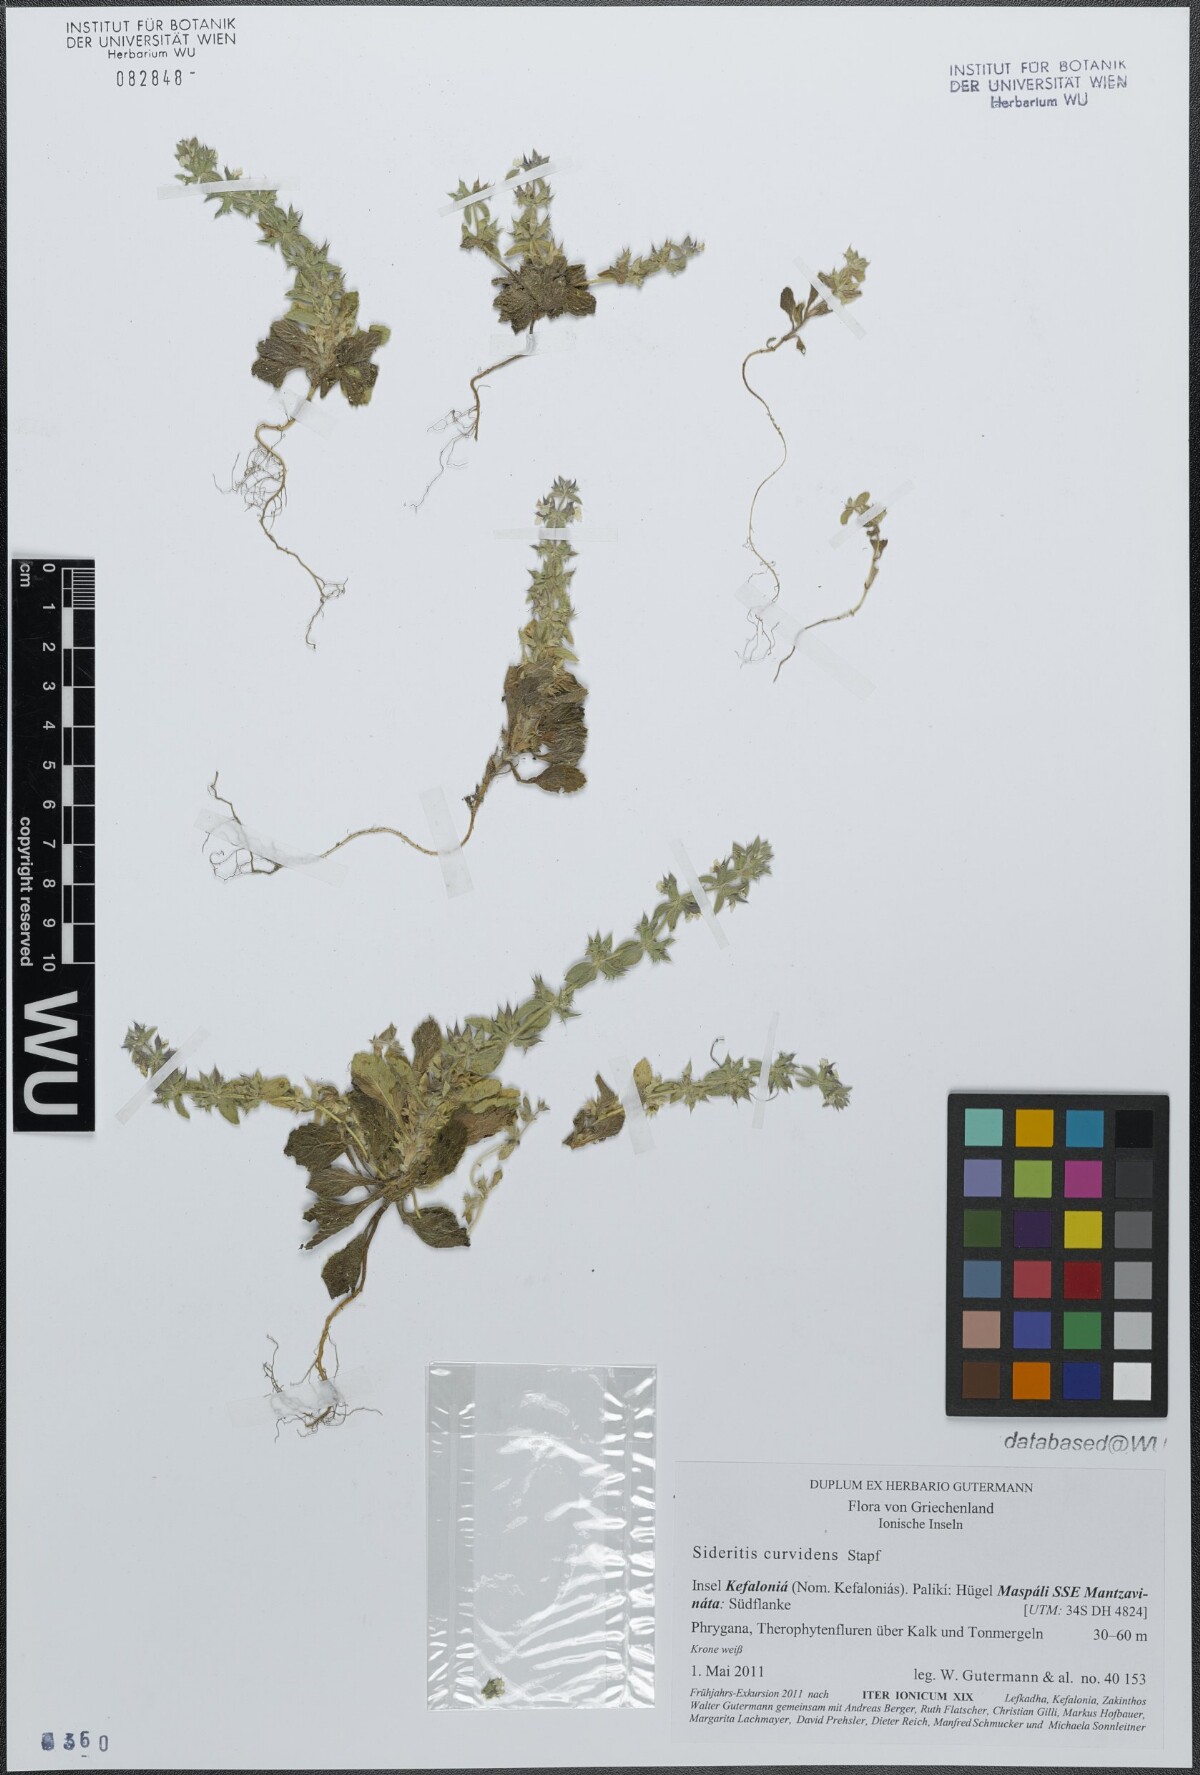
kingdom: Plantae
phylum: Tracheophyta
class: Magnoliopsida
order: Lamiales
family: Lamiaceae
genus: Sideritis
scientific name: Sideritis romana
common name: Simplebeak ironwort
